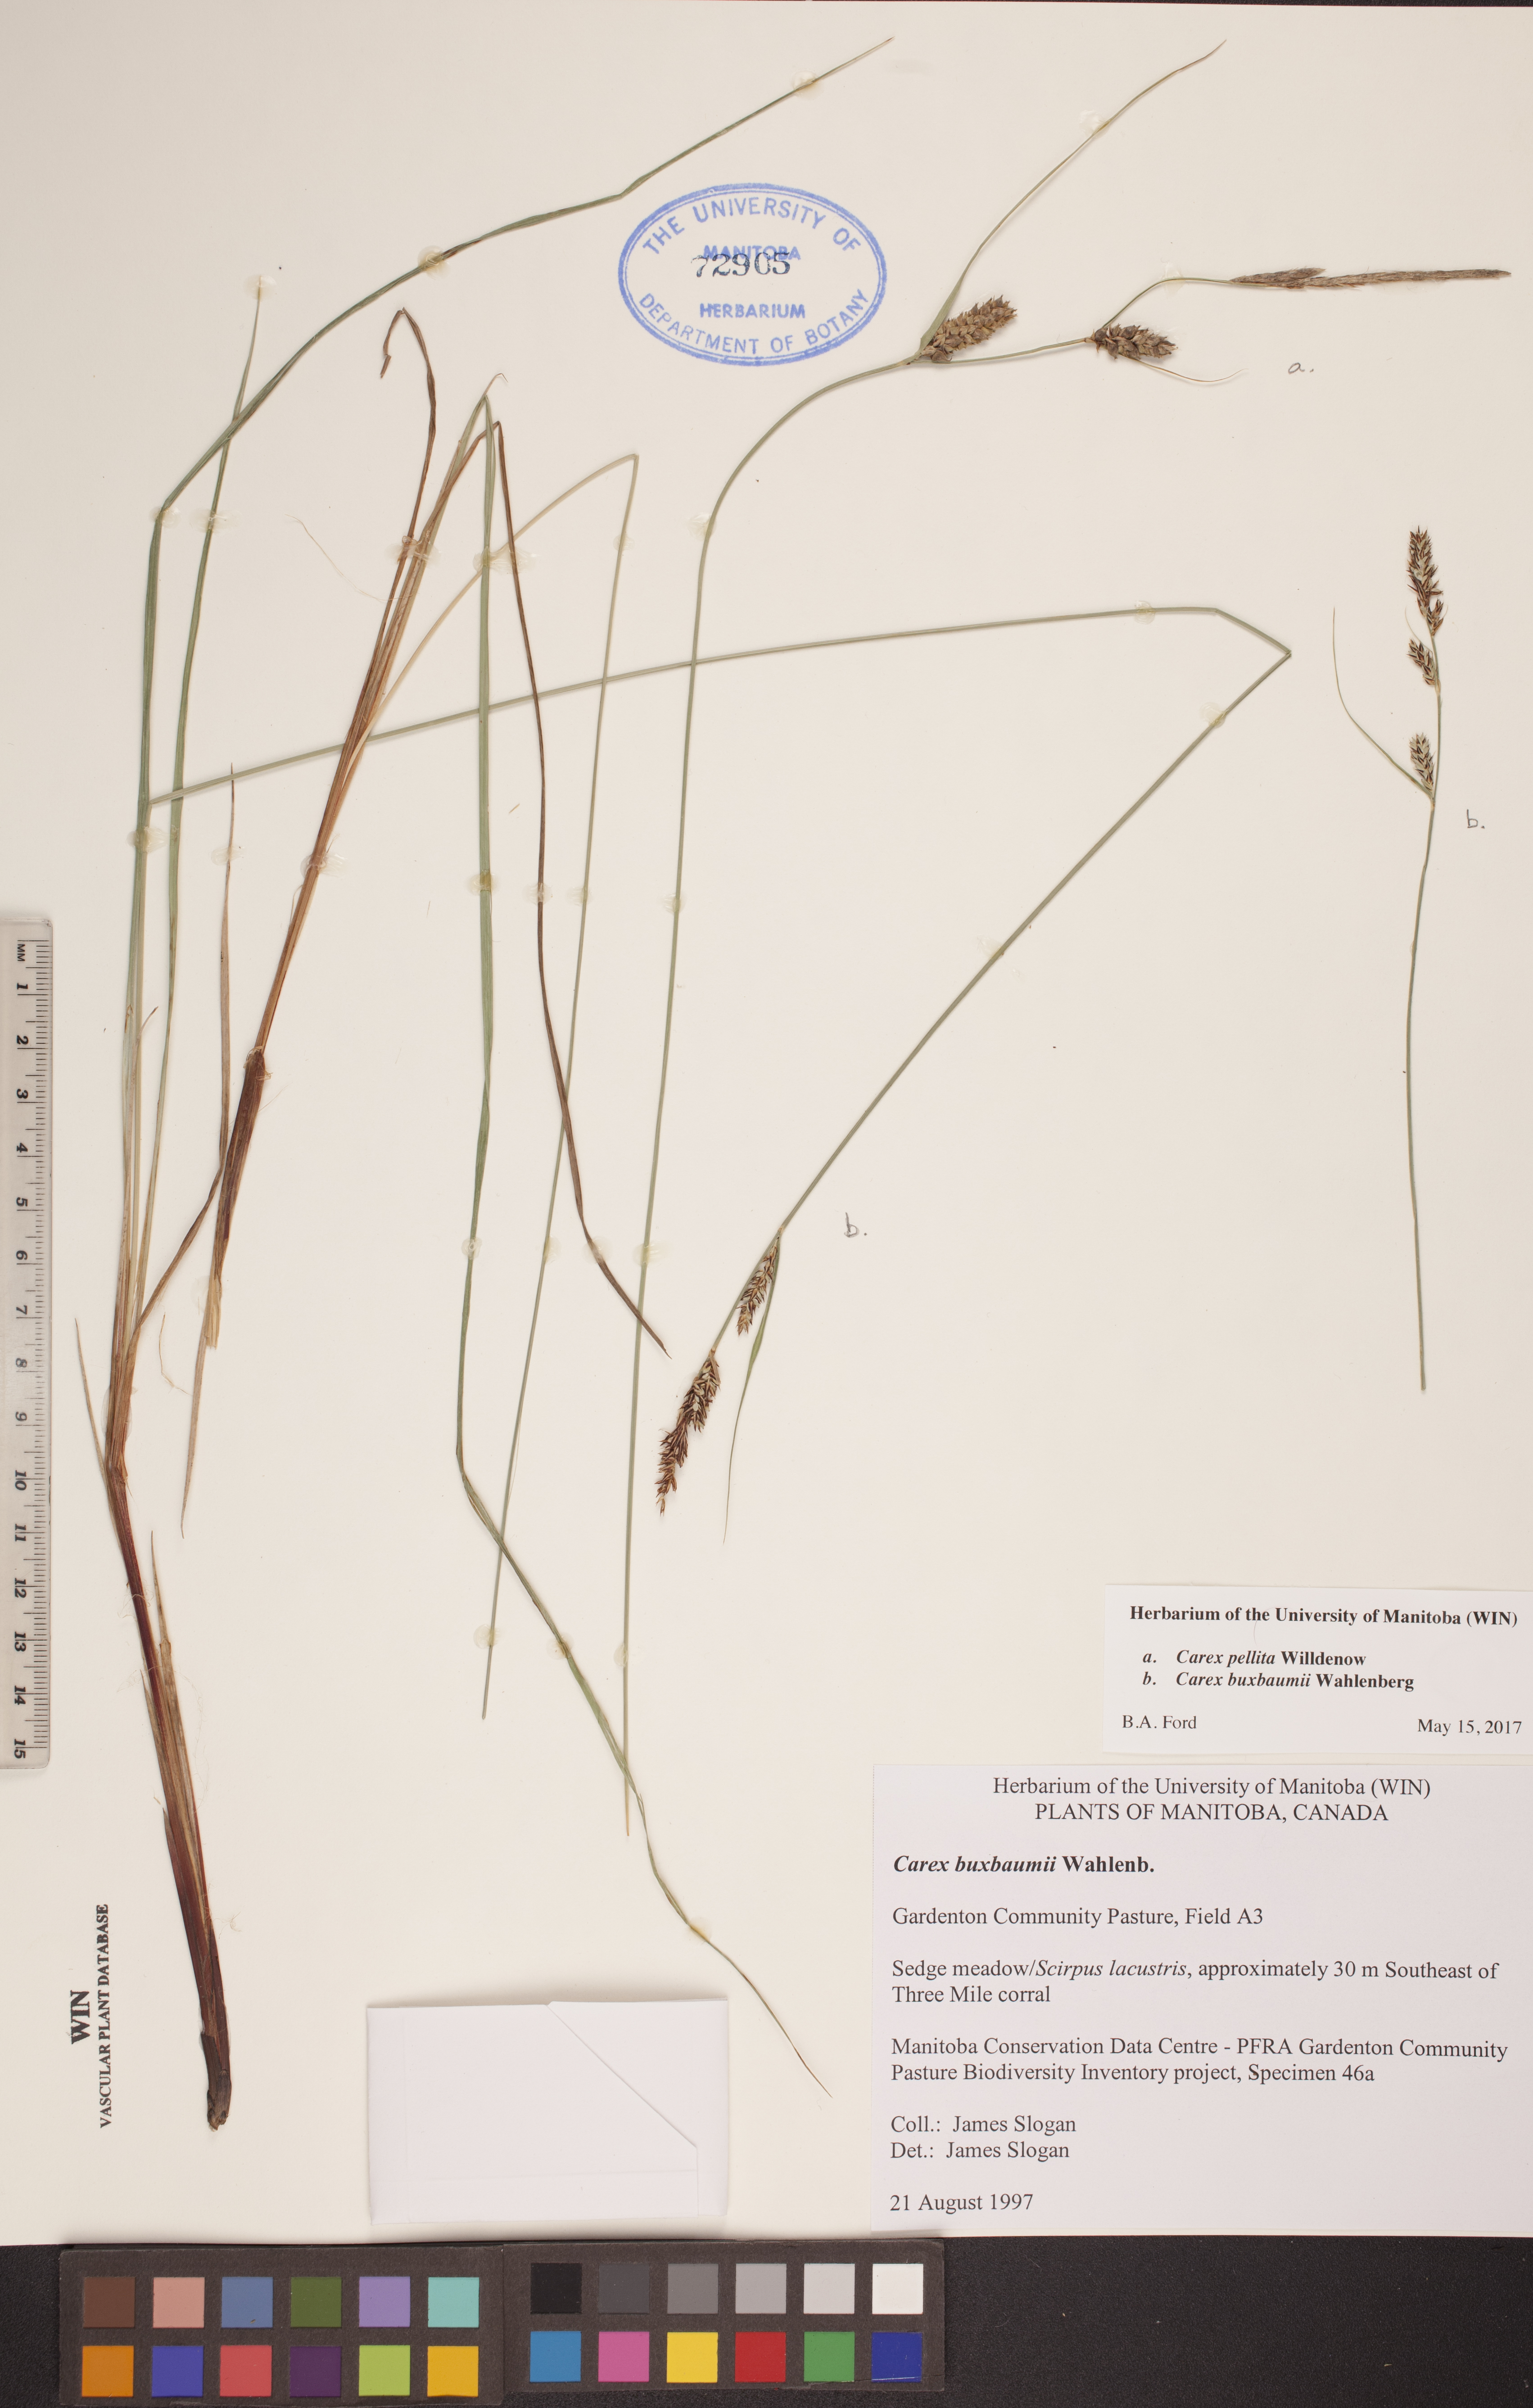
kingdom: Plantae
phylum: Tracheophyta
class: Liliopsida
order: Poales
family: Cyperaceae
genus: Carex
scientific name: Carex buxbaumii
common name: Club sedge
